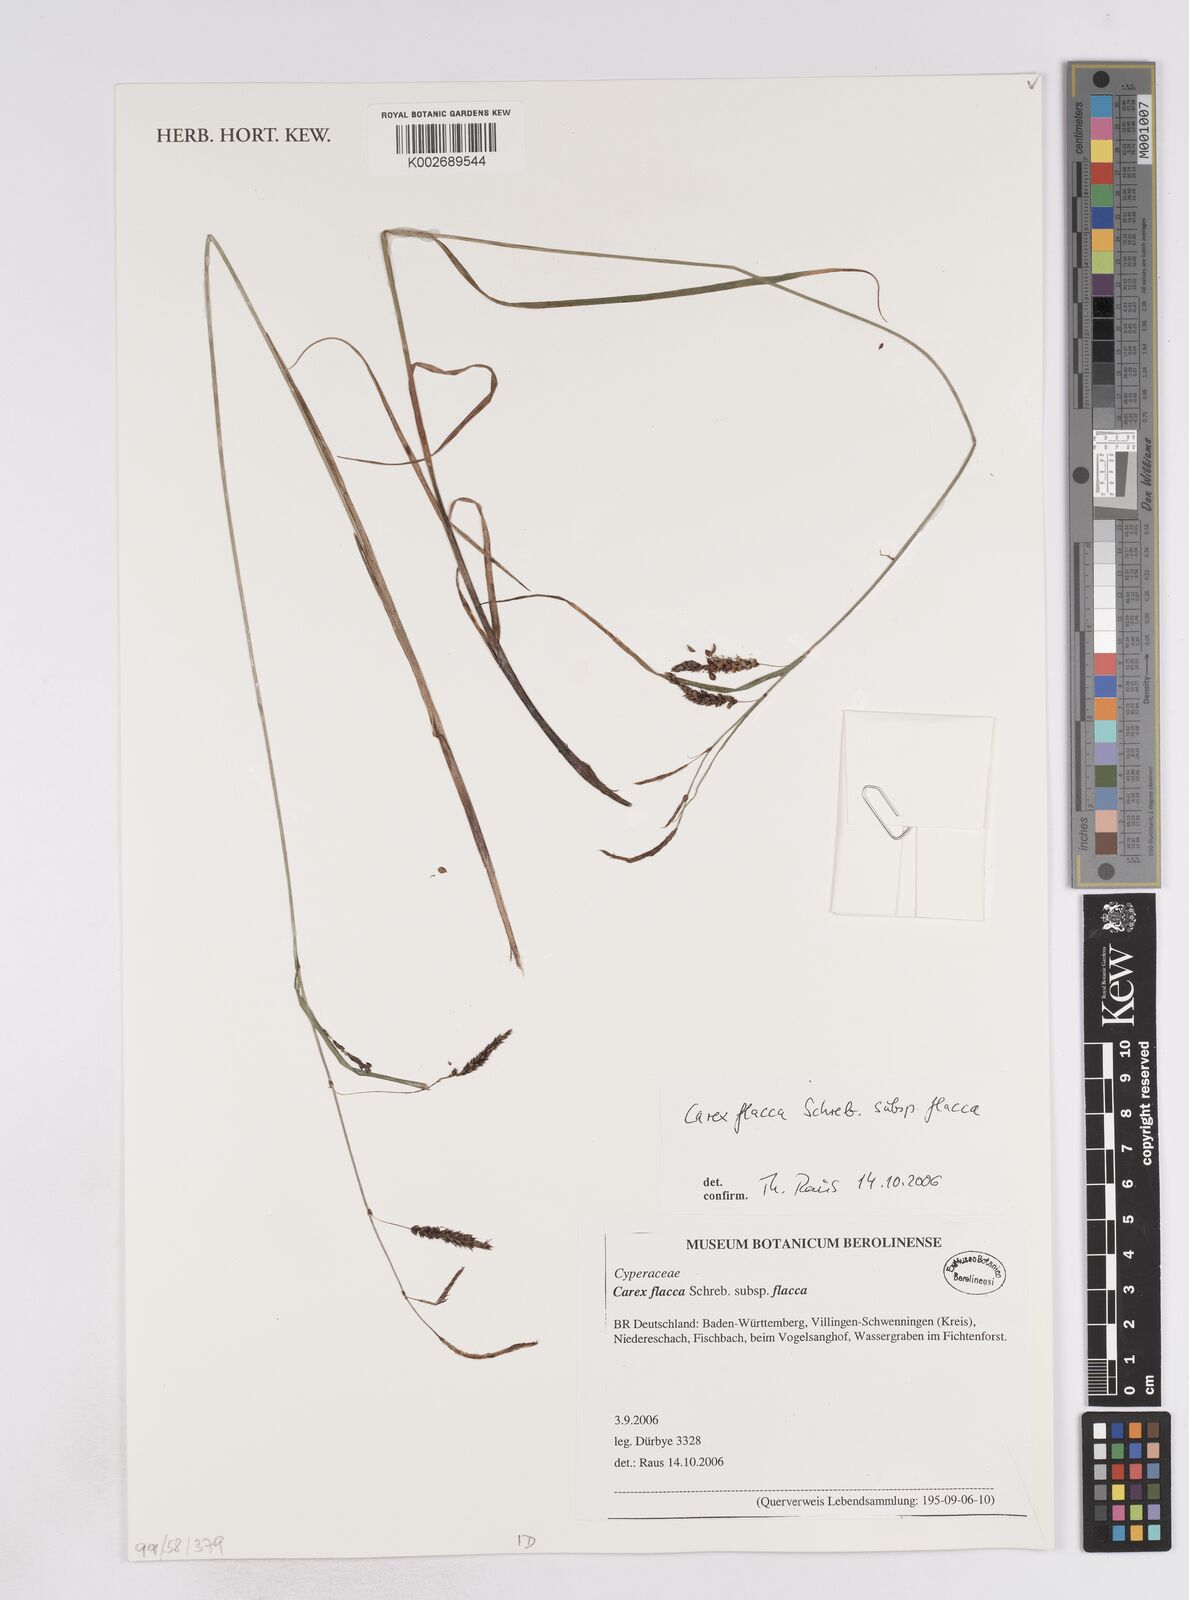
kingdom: Plantae
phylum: Tracheophyta
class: Liliopsida
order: Poales
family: Cyperaceae
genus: Carex
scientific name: Carex flacca
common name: Glaucous sedge
